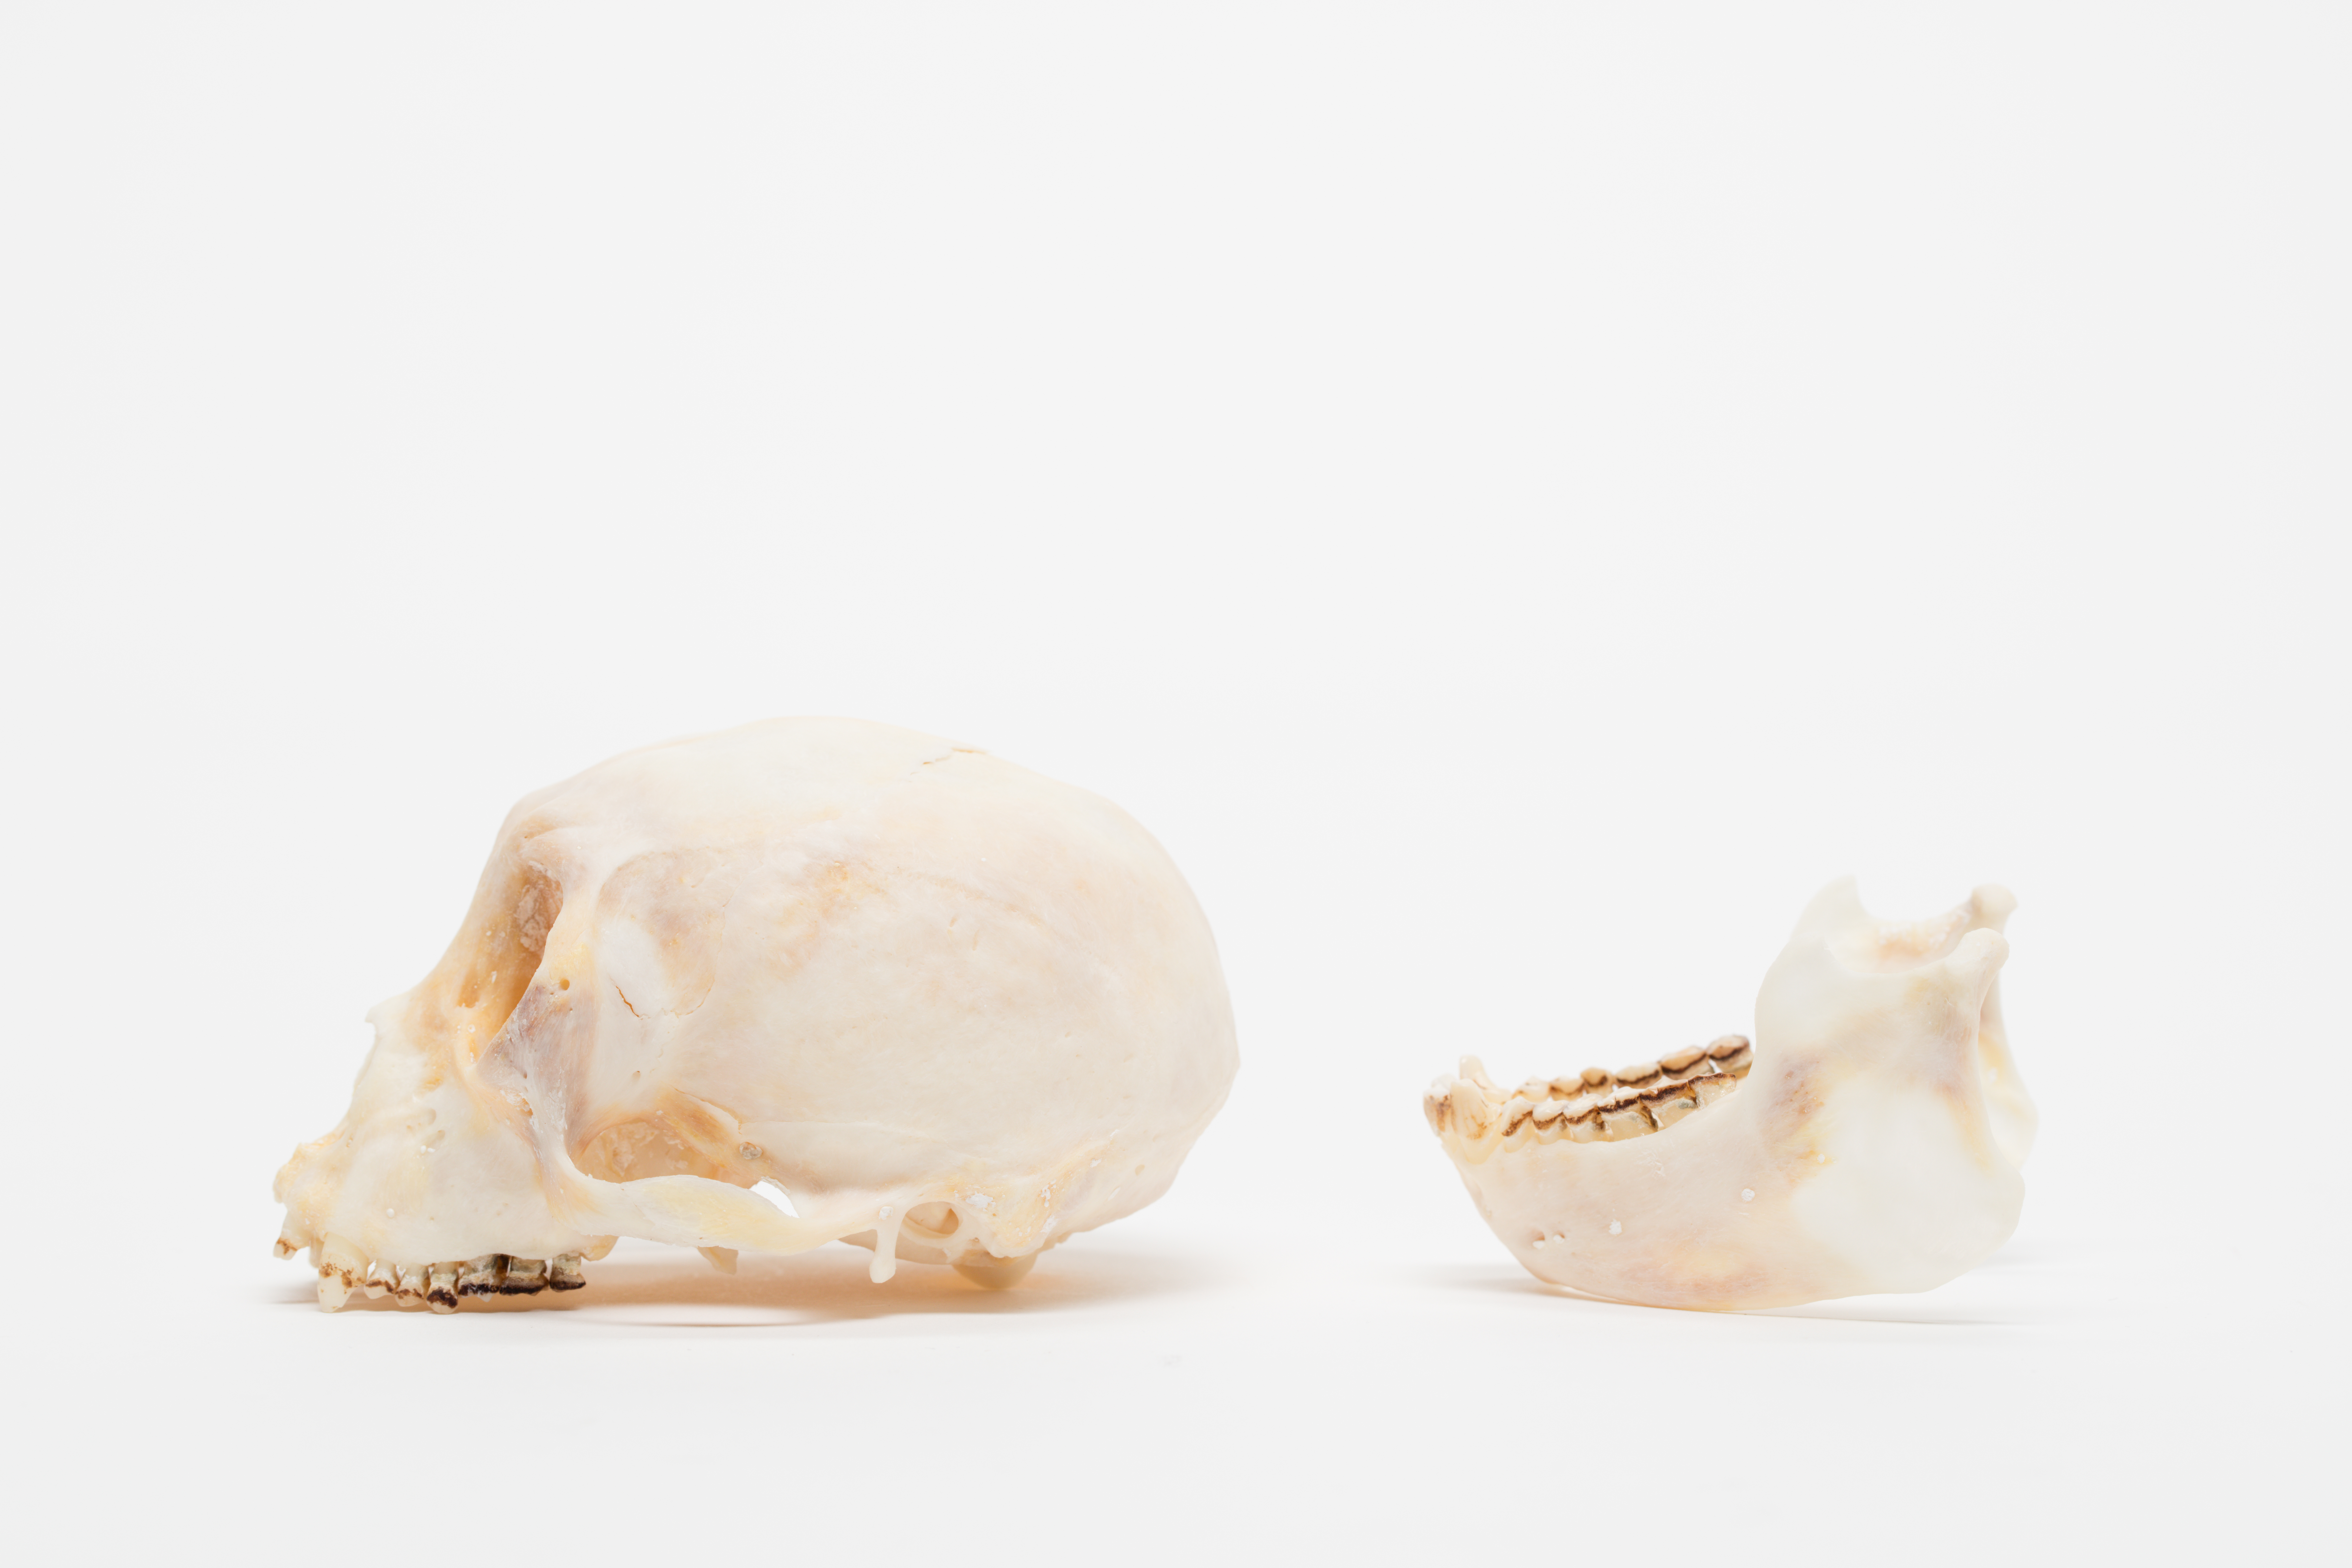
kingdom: Animalia
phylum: Chordata
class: Mammalia
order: Primates
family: Atelidae
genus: Ateles
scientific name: Ateles geoffroyi
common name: Black-handed spider monkey
